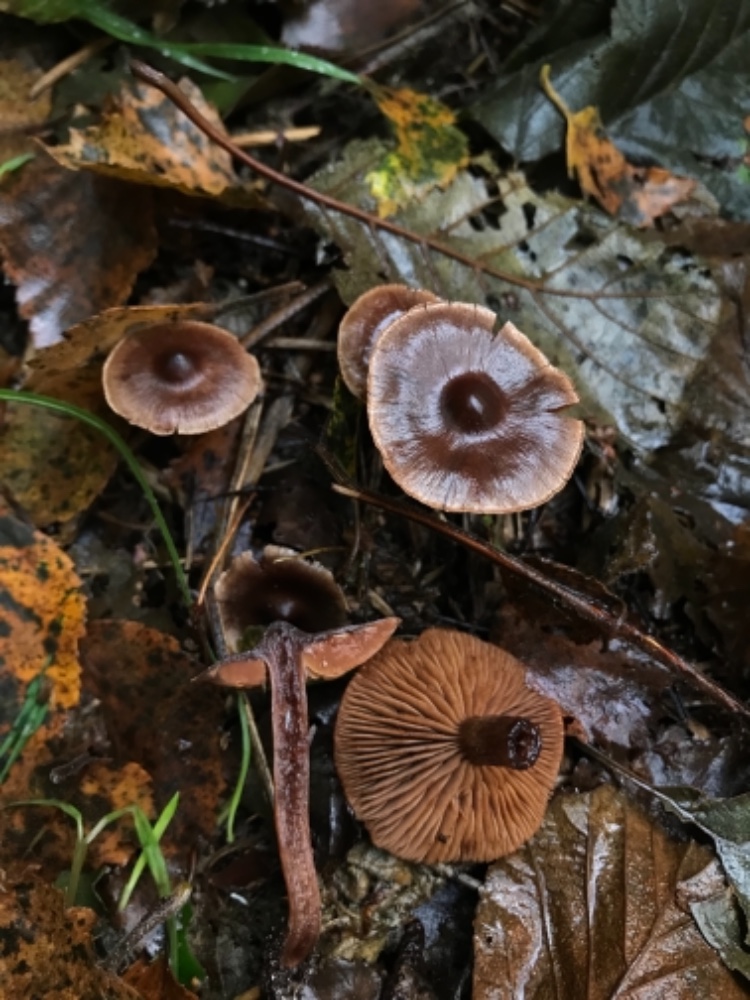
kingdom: Fungi
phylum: Basidiomycota
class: Agaricomycetes
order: Agaricales
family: Cortinariaceae
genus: Cortinarius
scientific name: Cortinarius
